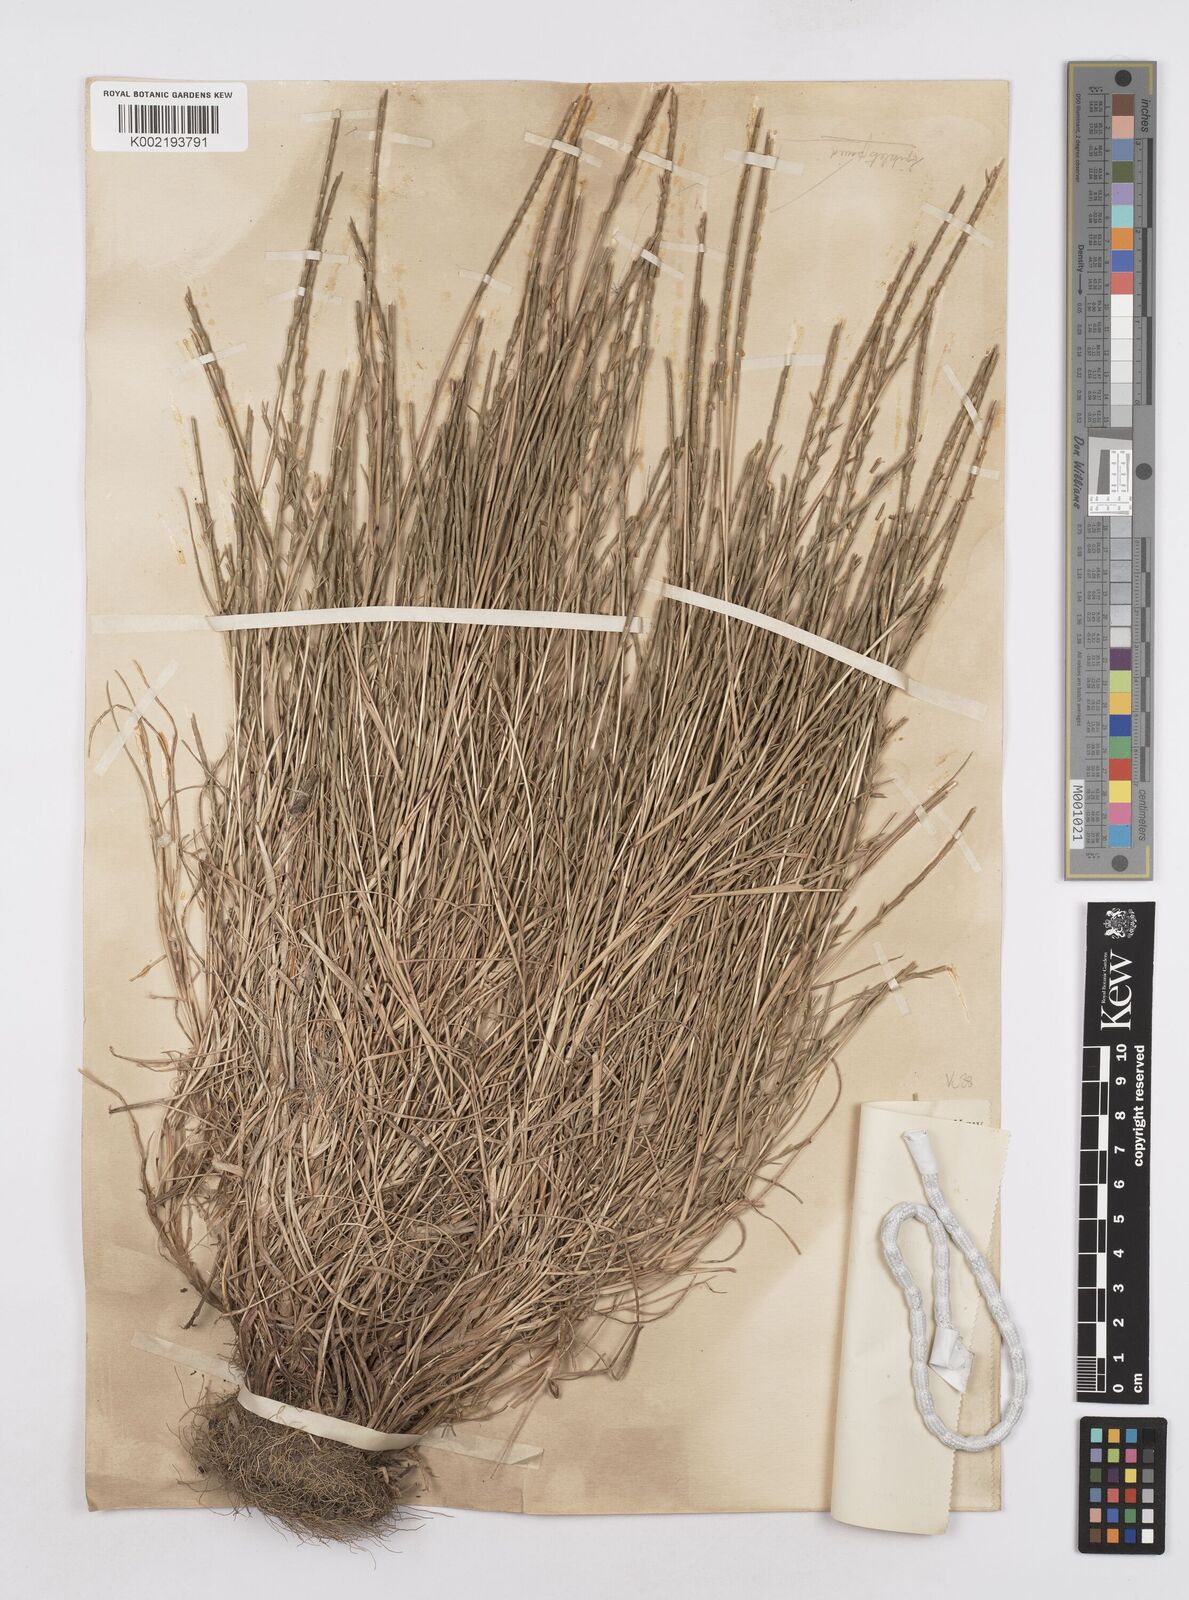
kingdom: Plantae
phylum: Tracheophyta
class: Liliopsida
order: Poales
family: Poaceae
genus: Parapholis
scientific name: Parapholis
